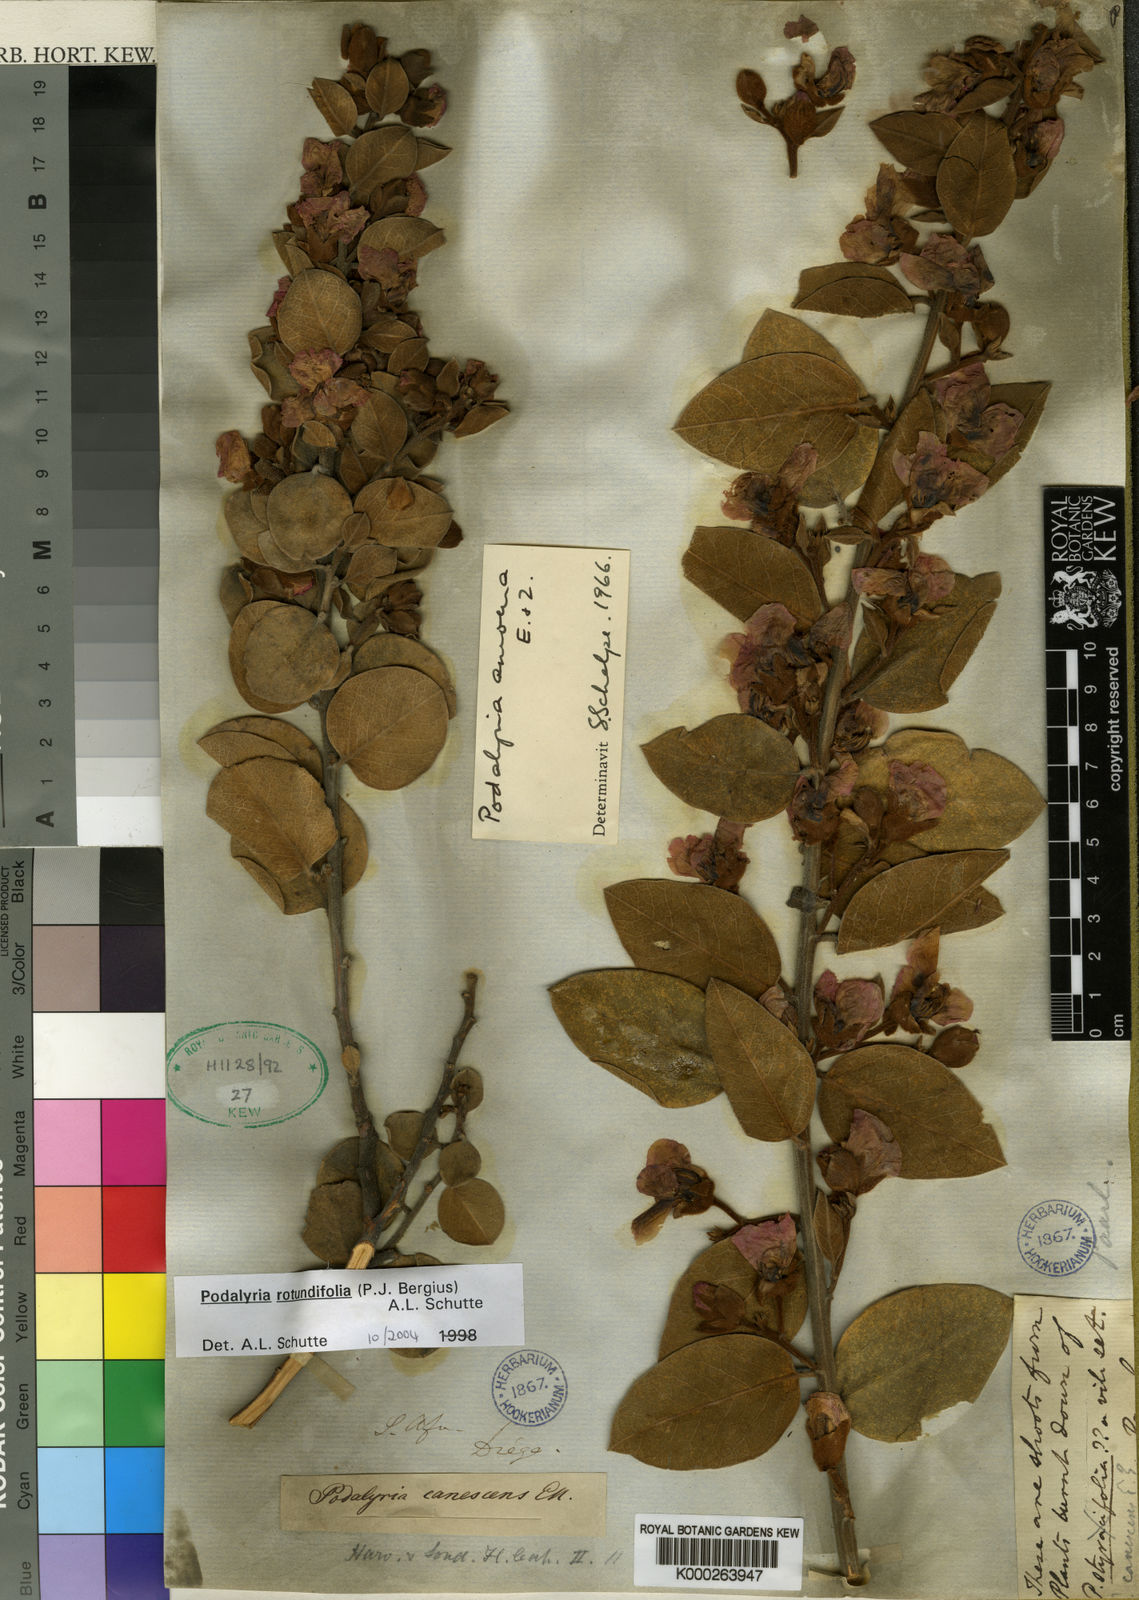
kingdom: Plantae
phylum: Tracheophyta
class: Magnoliopsida
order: Fabales
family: Fabaceae
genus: Podalyria
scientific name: Podalyria
